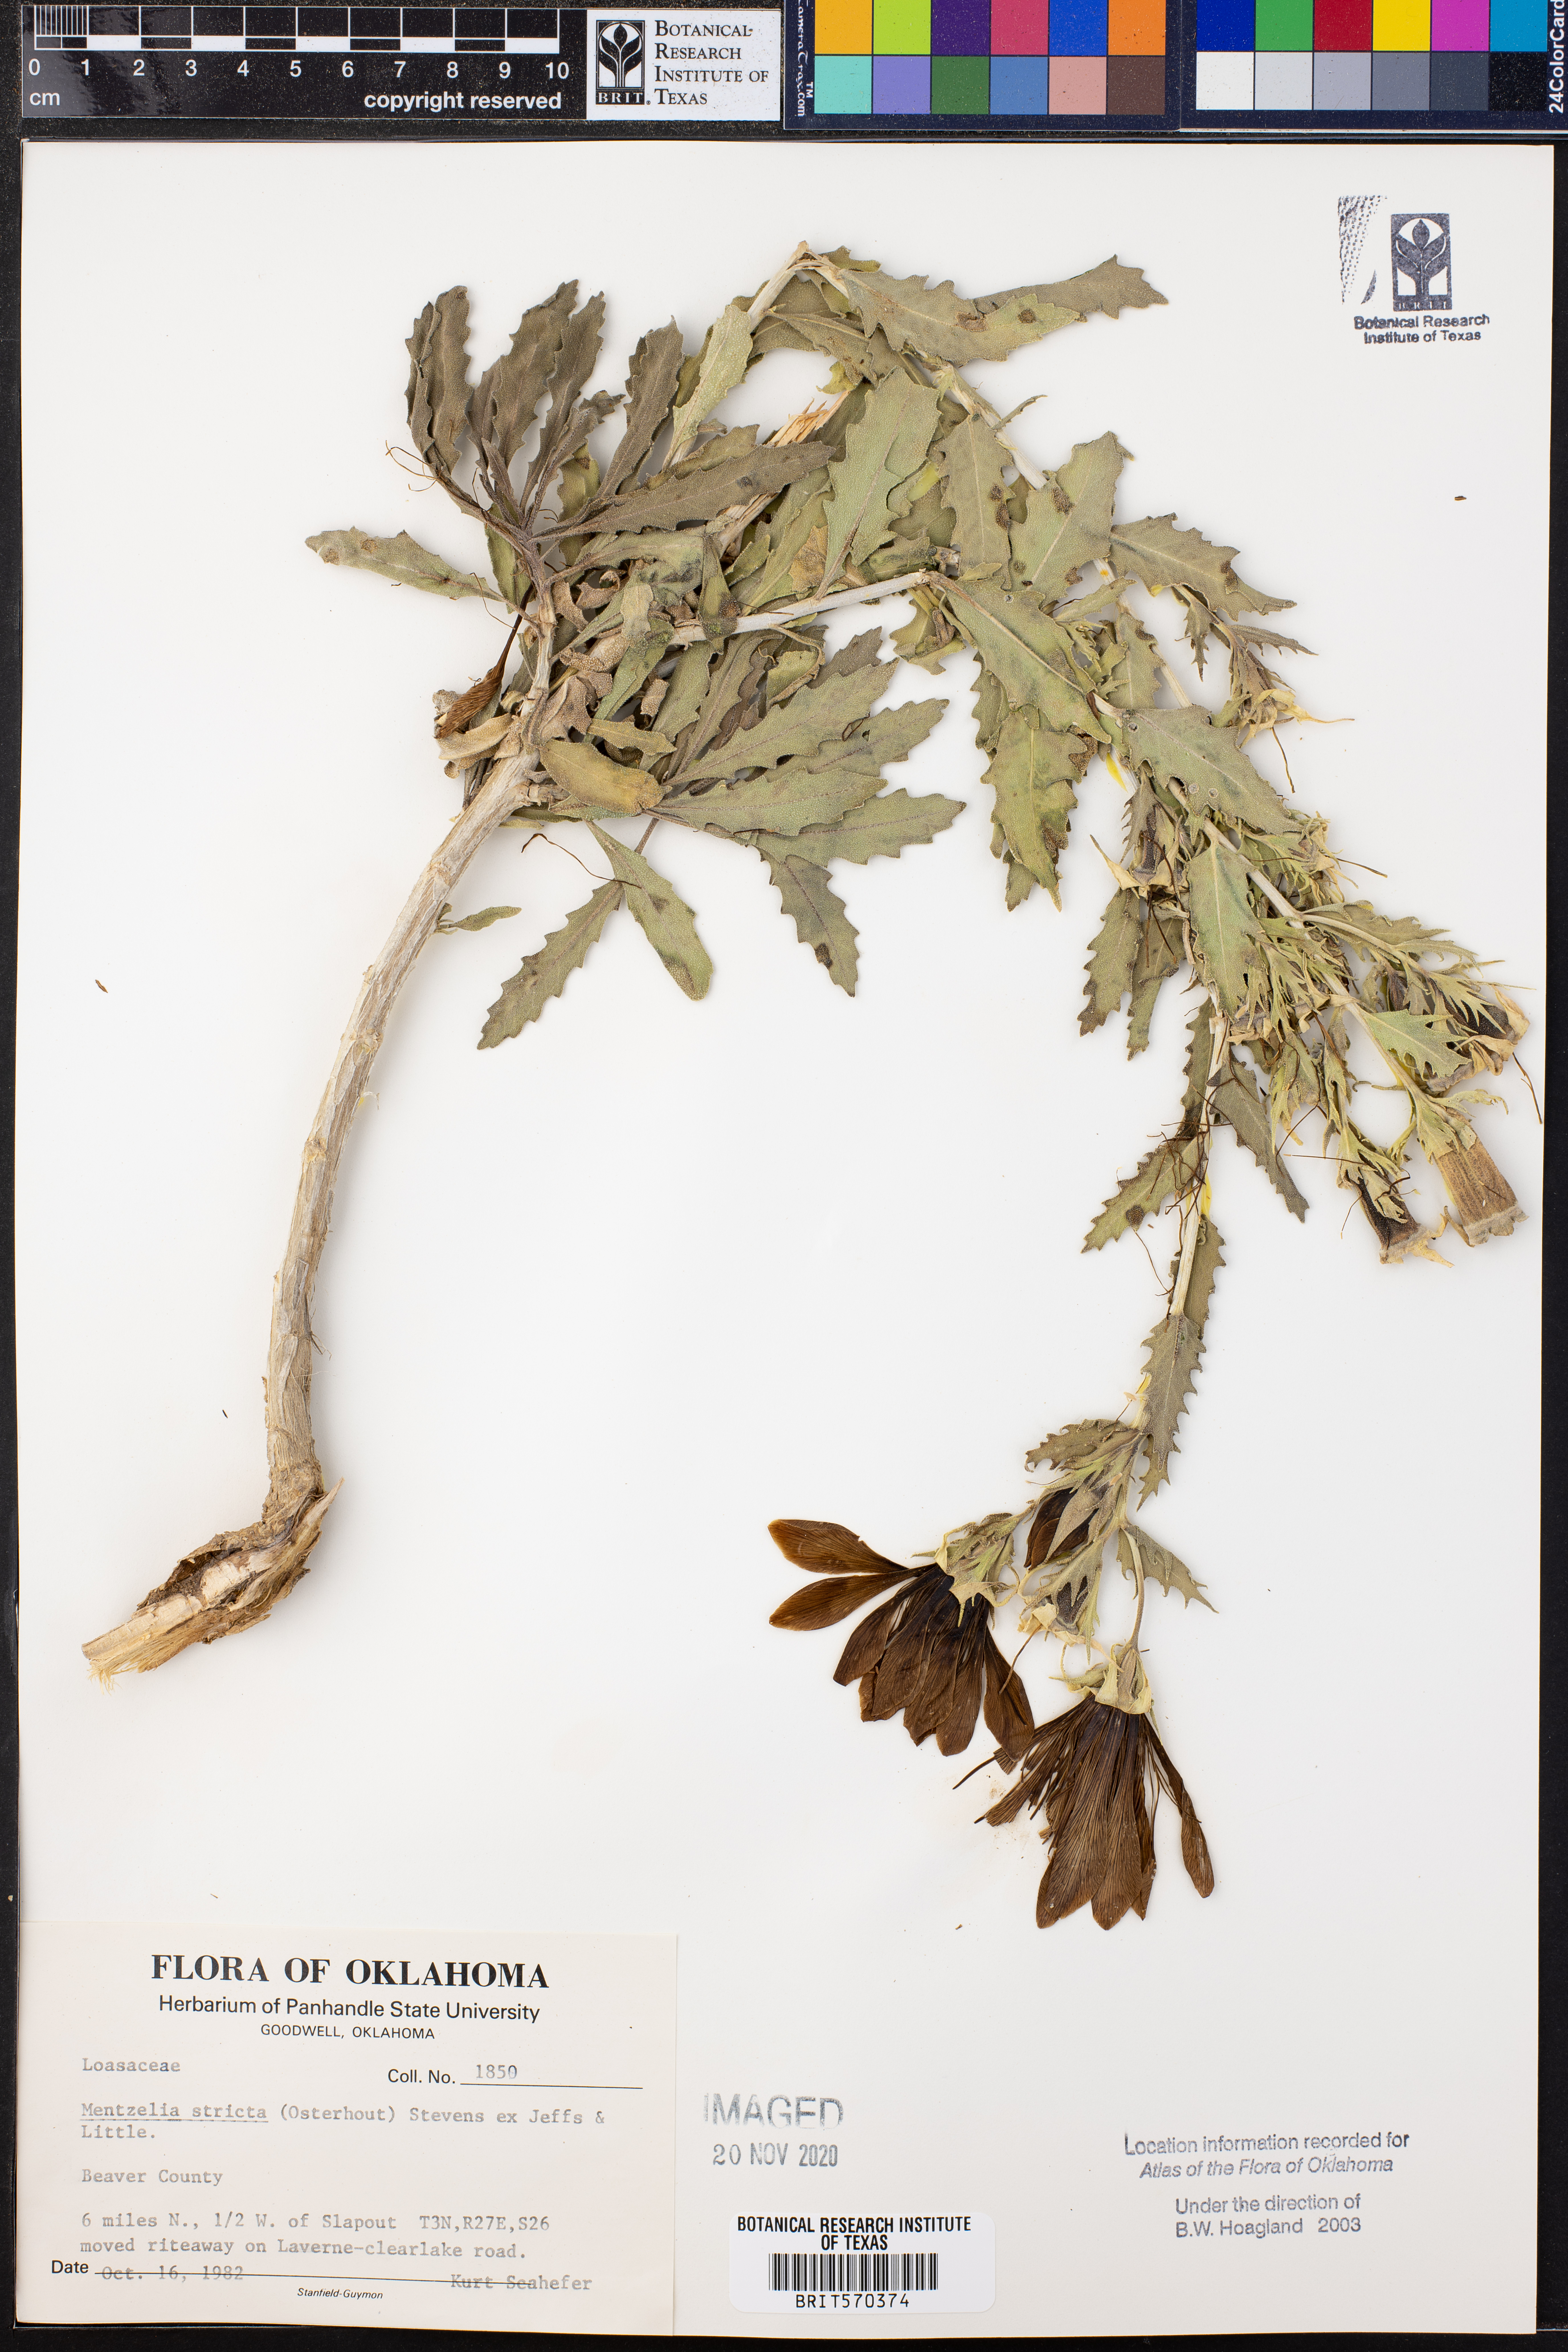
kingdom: Plantae
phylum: Tracheophyta
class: Magnoliopsida
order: Cornales
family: Loasaceae
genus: Mentzelia
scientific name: Mentzelia nuda
